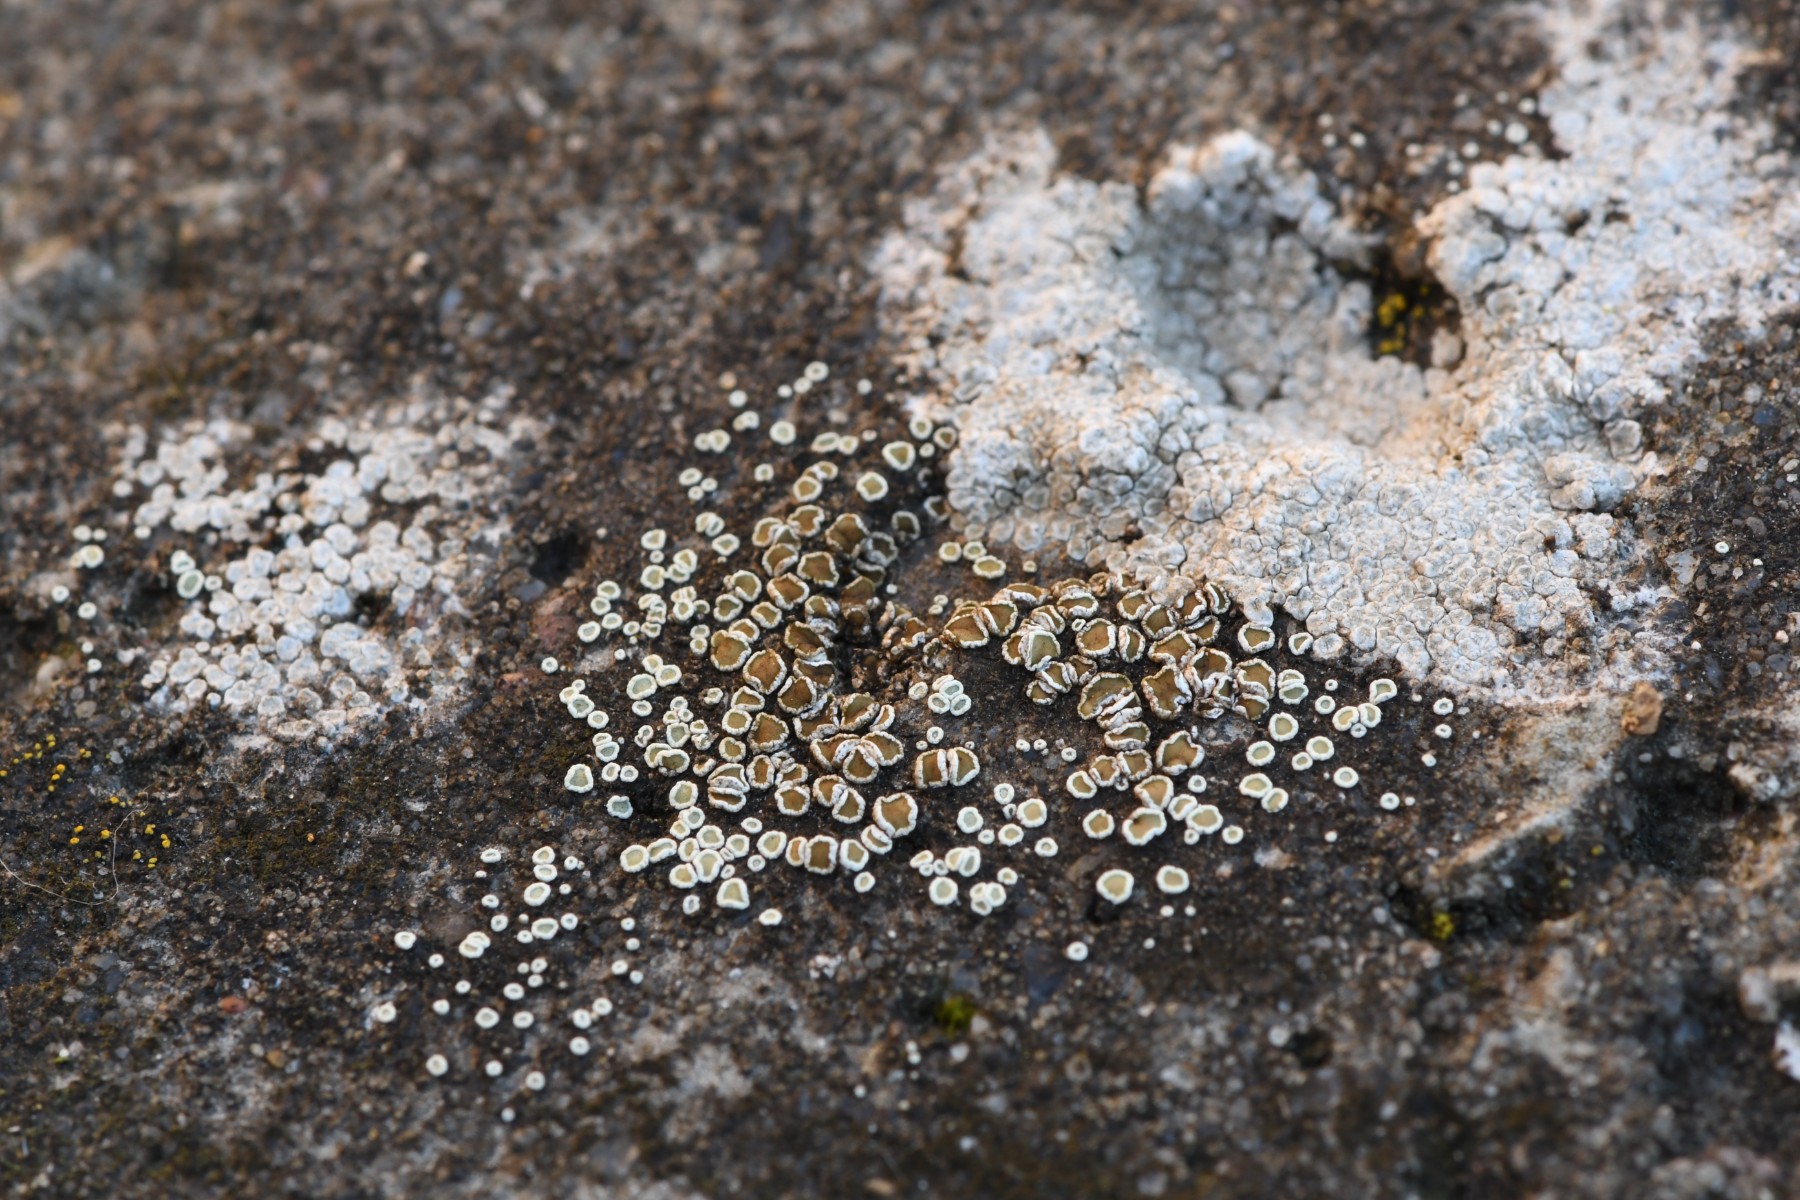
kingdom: Fungi
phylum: Ascomycota
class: Lecanoromycetes
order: Lecanorales
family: Lecanoraceae
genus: Polyozosia
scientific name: Polyozosia dispersa
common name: spredt kantskivelav
